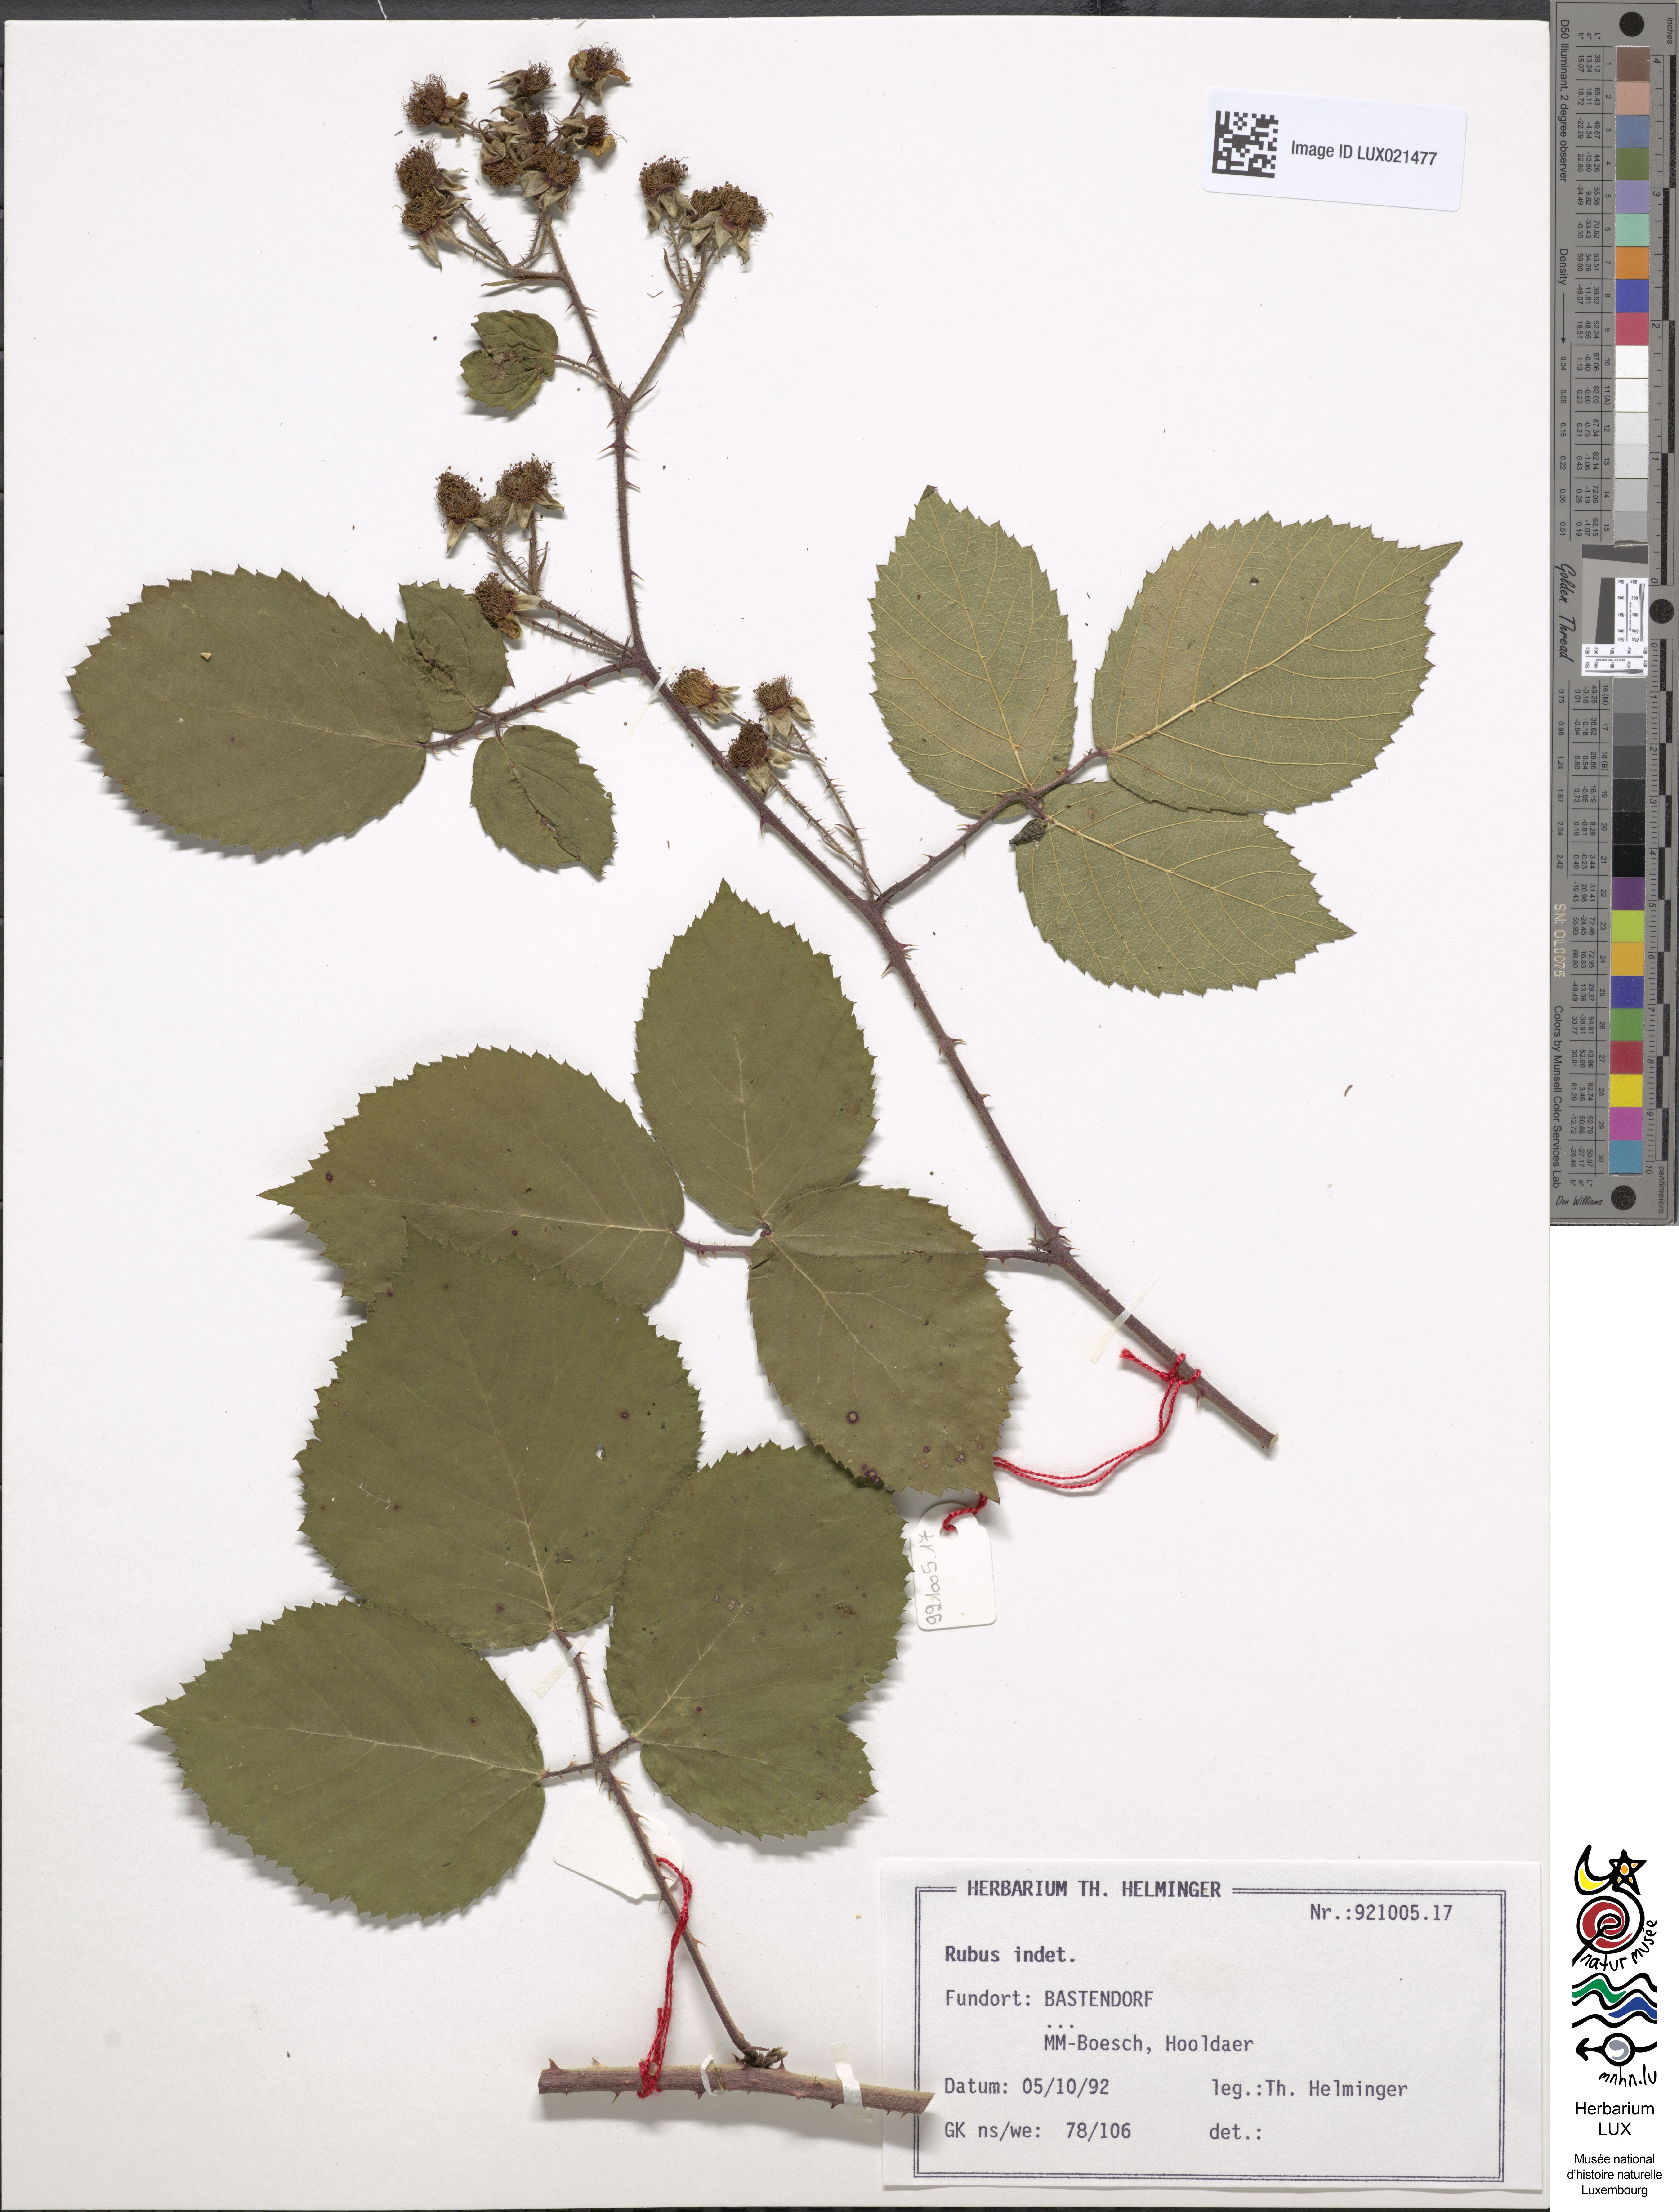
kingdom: Plantae
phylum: Tracheophyta
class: Magnoliopsida
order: Rosales
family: Rosaceae
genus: Rubus
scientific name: Rubus
